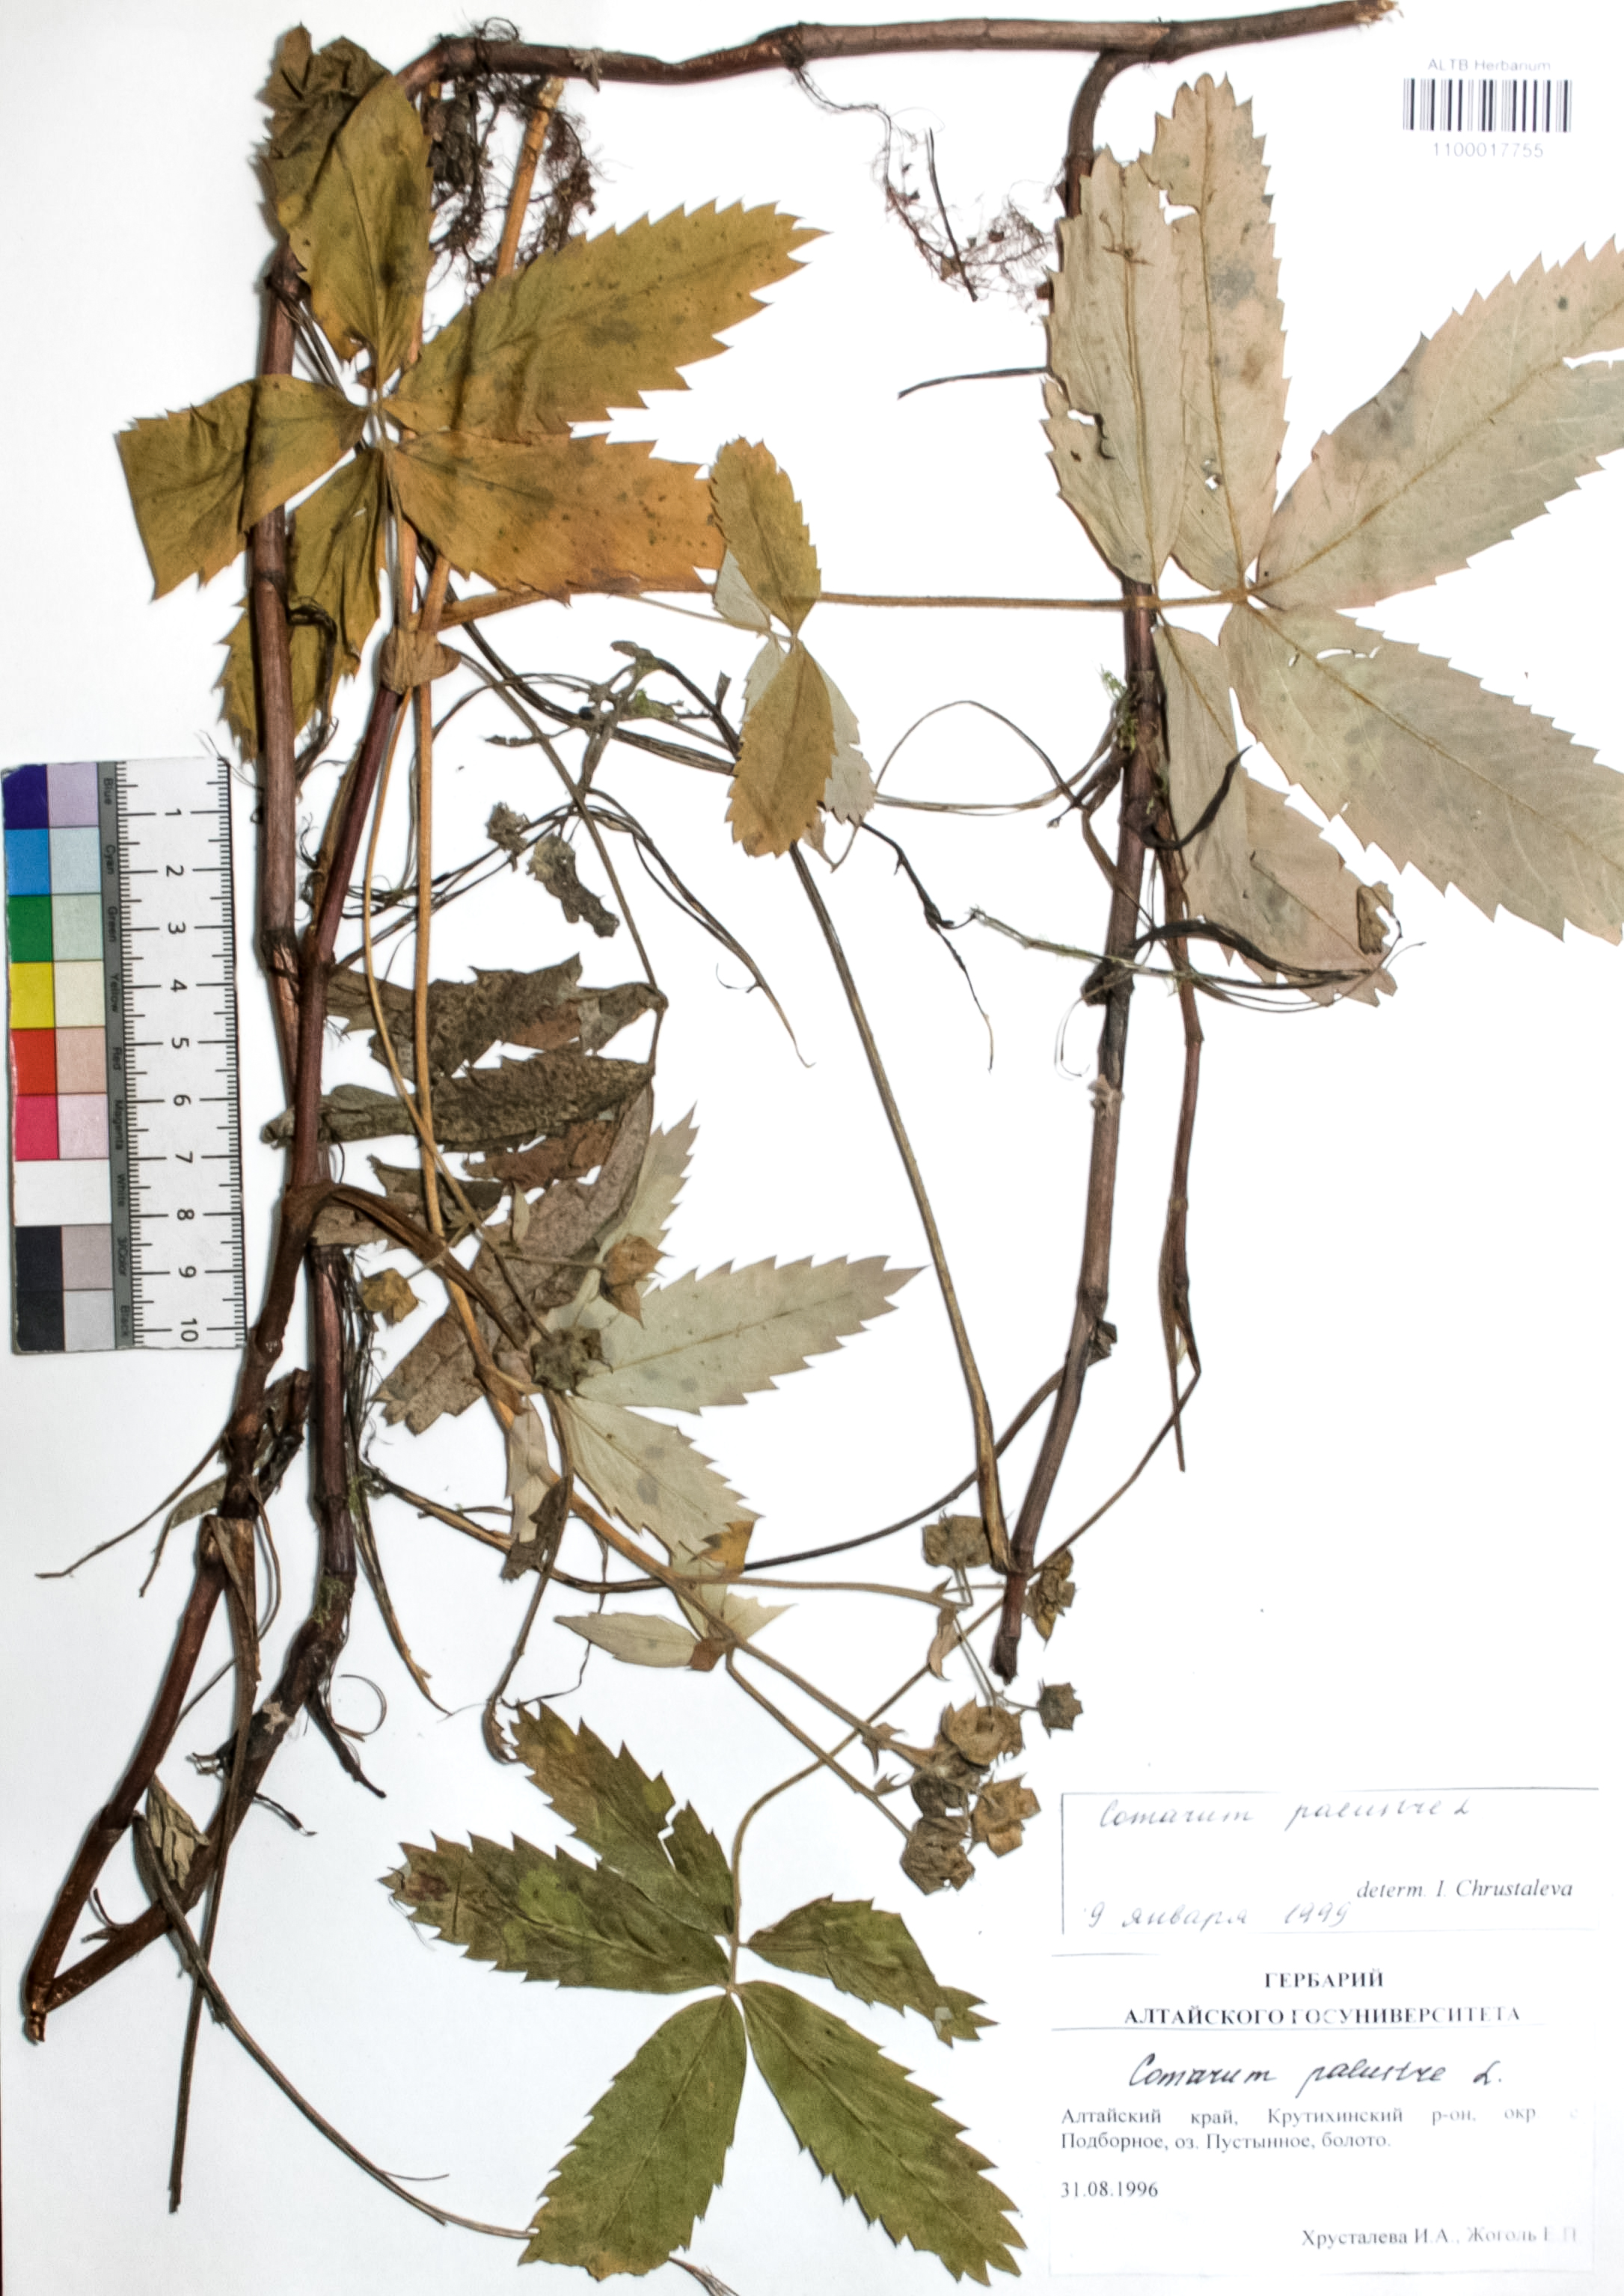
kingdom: Plantae
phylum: Tracheophyta
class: Magnoliopsida
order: Rosales
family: Rosaceae
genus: Comarum
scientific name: Comarum palustre
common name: Marsh cinquefoil
